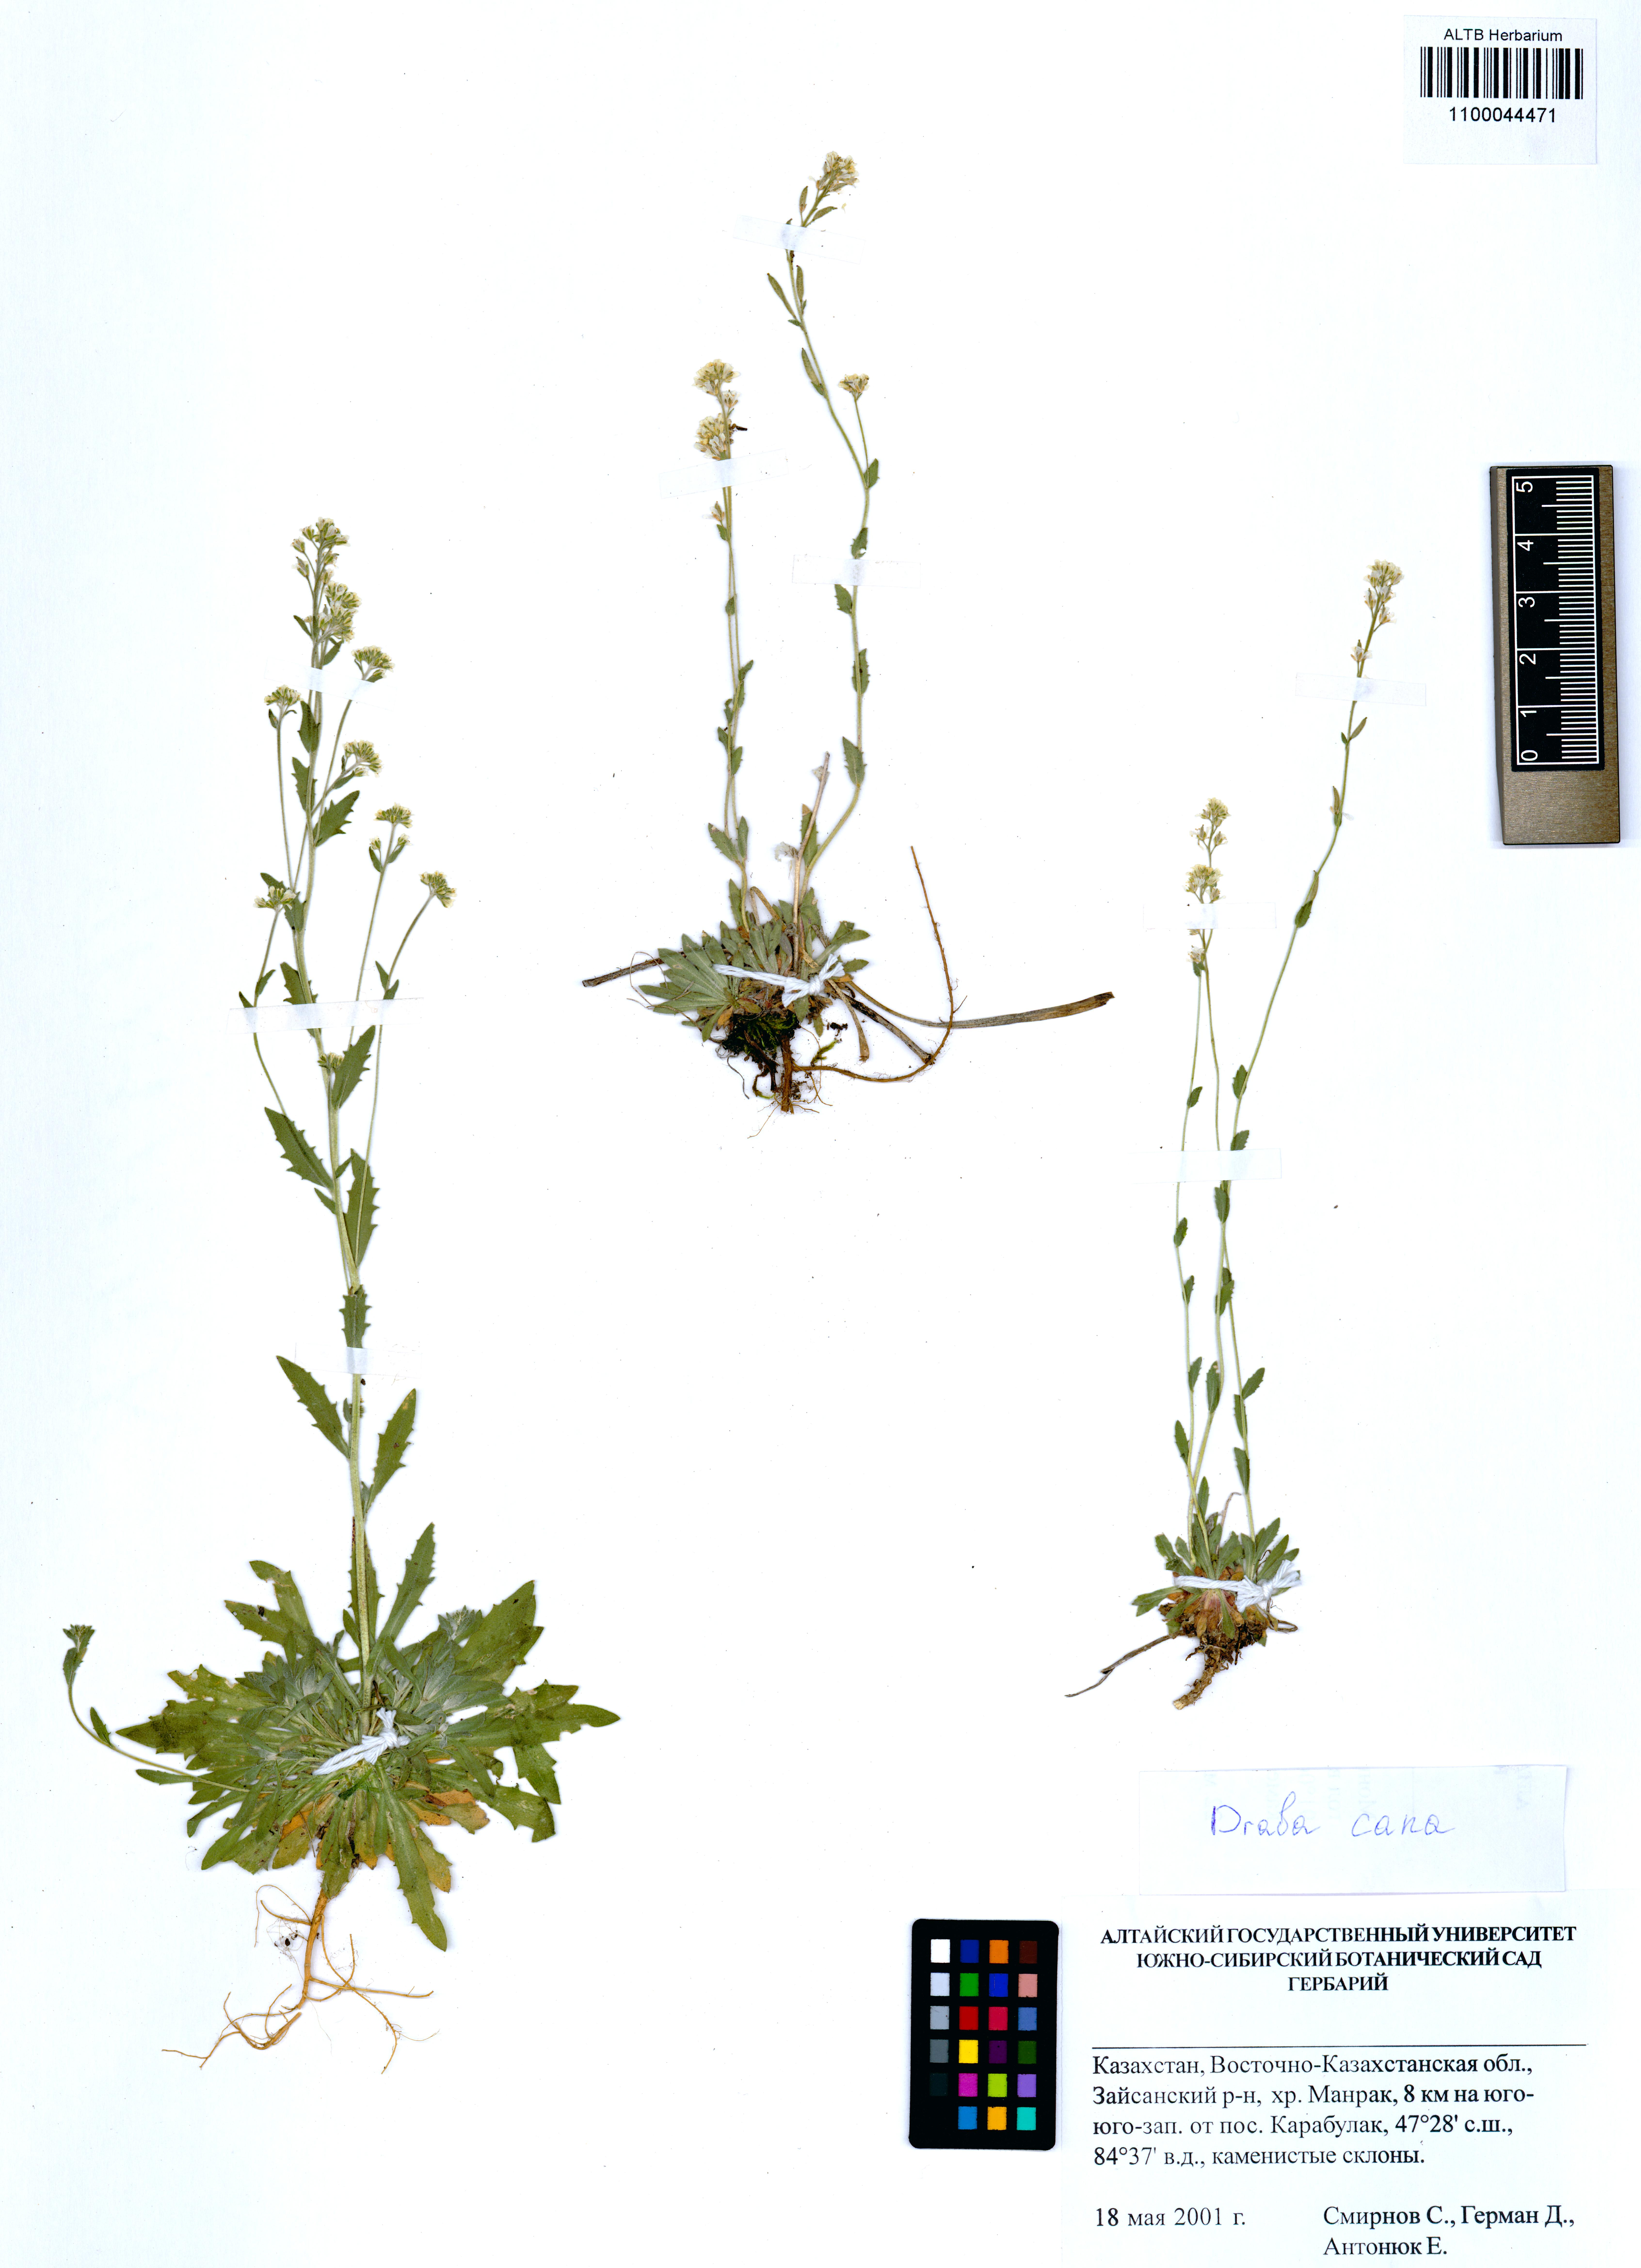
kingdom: Plantae
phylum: Tracheophyta
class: Magnoliopsida
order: Brassicales
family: Brassicaceae
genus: Draba
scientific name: Draba cana
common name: Hoary draba
